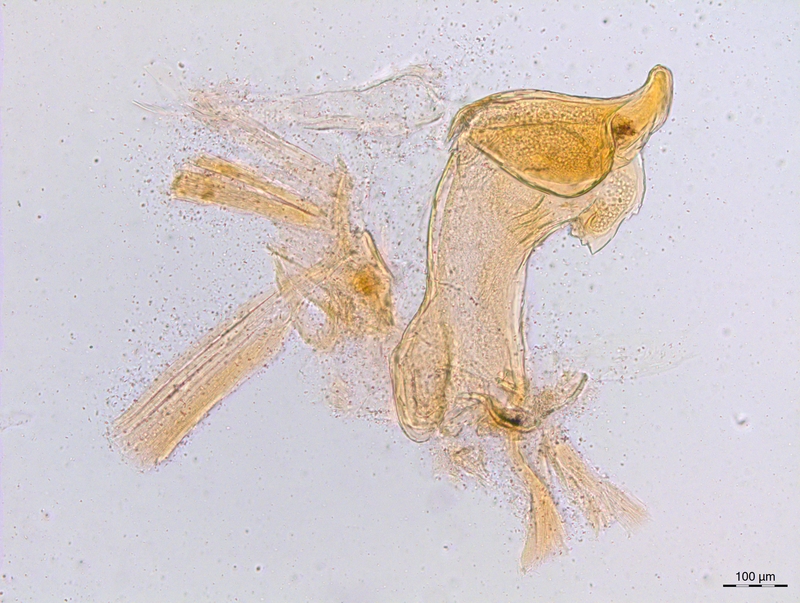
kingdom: Animalia
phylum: Arthropoda
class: Diplopoda
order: Chordeumatida
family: Craspedosomatidae
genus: Craspedosoma
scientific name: Craspedosoma productum
